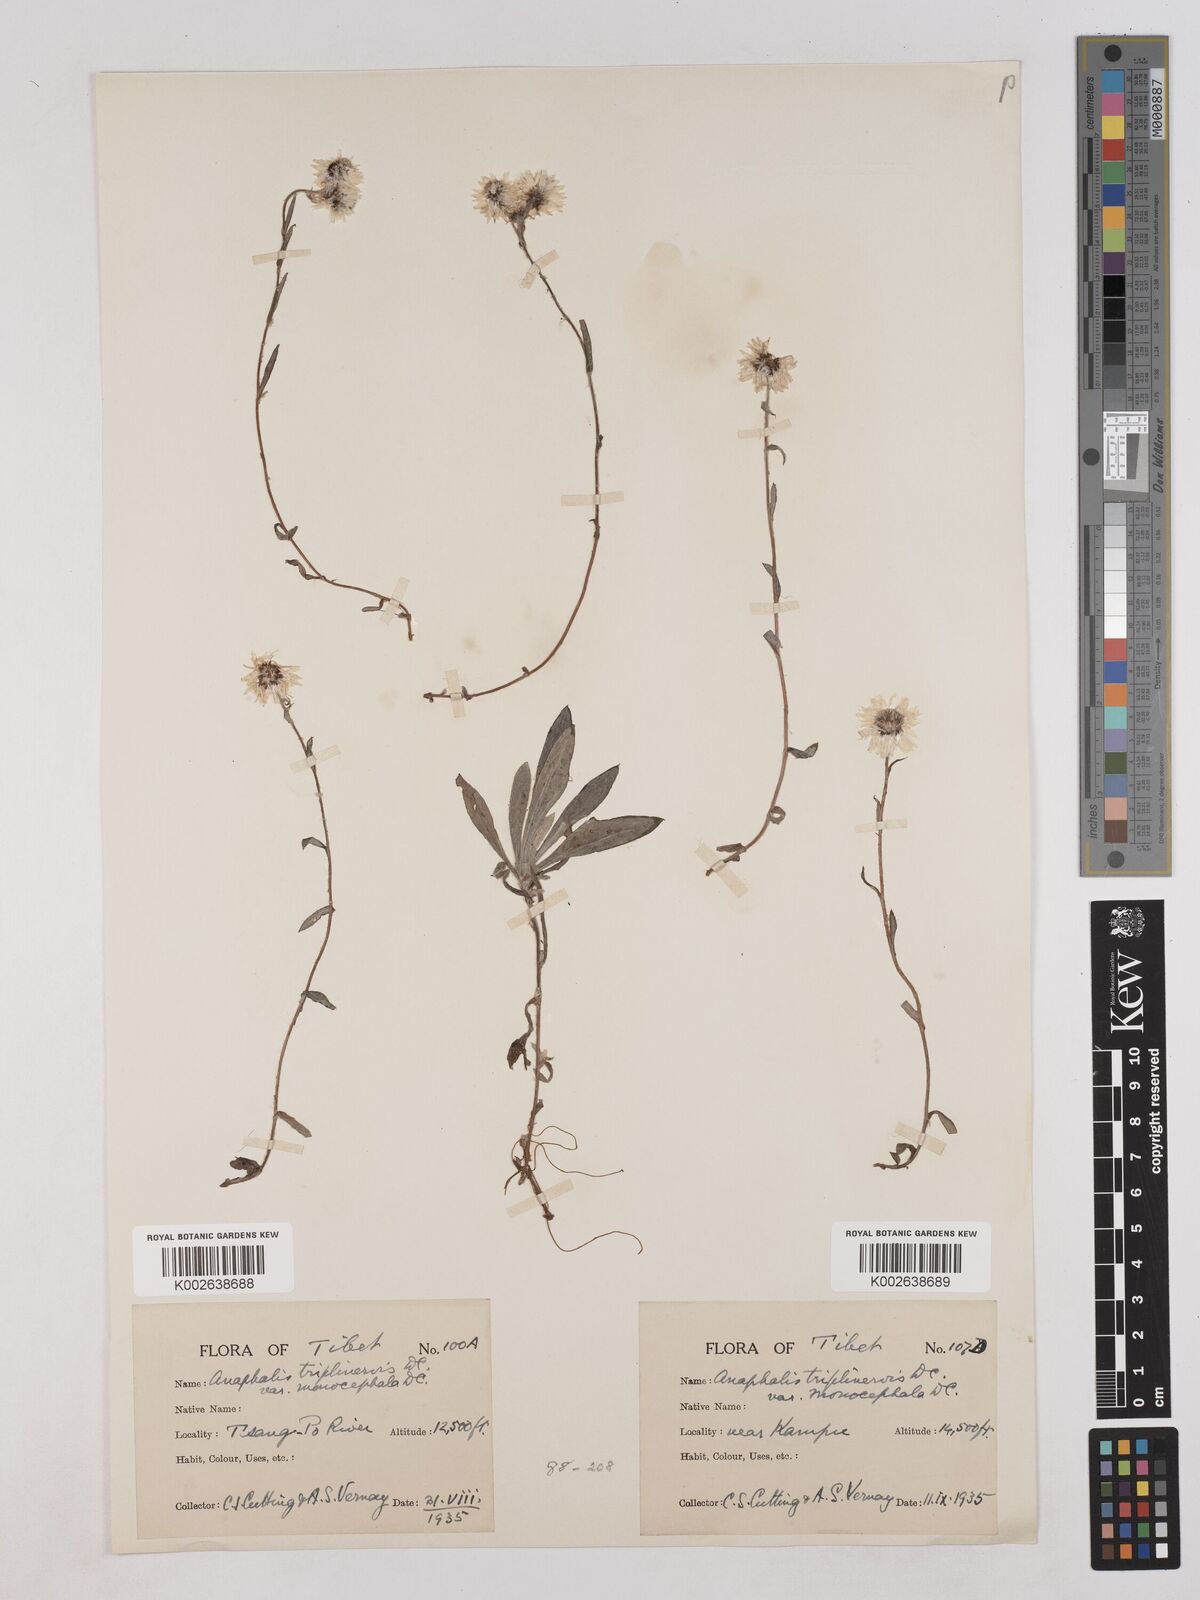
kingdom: Plantae
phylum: Tracheophyta
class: Magnoliopsida
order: Asterales
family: Asteraceae
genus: Anaphalis
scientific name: Anaphalis nepalensis
